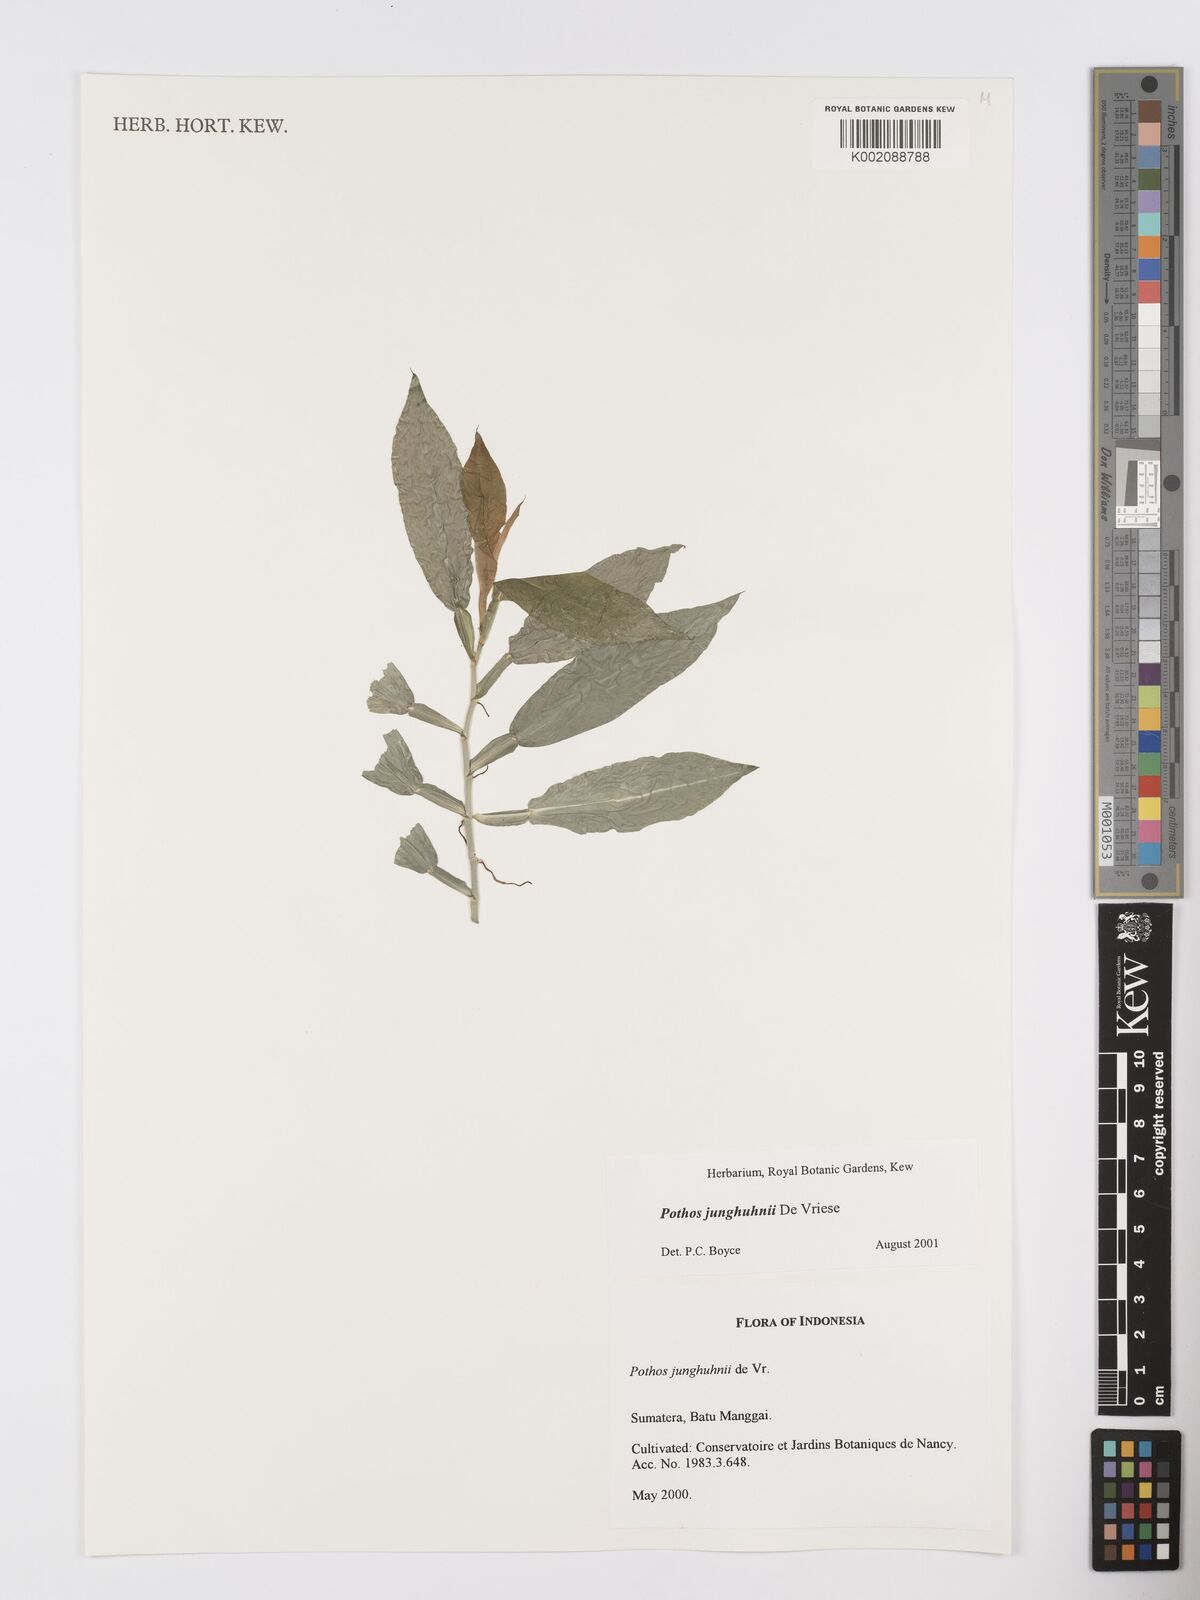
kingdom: Plantae
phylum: Tracheophyta
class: Liliopsida
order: Alismatales
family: Araceae
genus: Pothos
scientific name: Pothos junghuhnii
